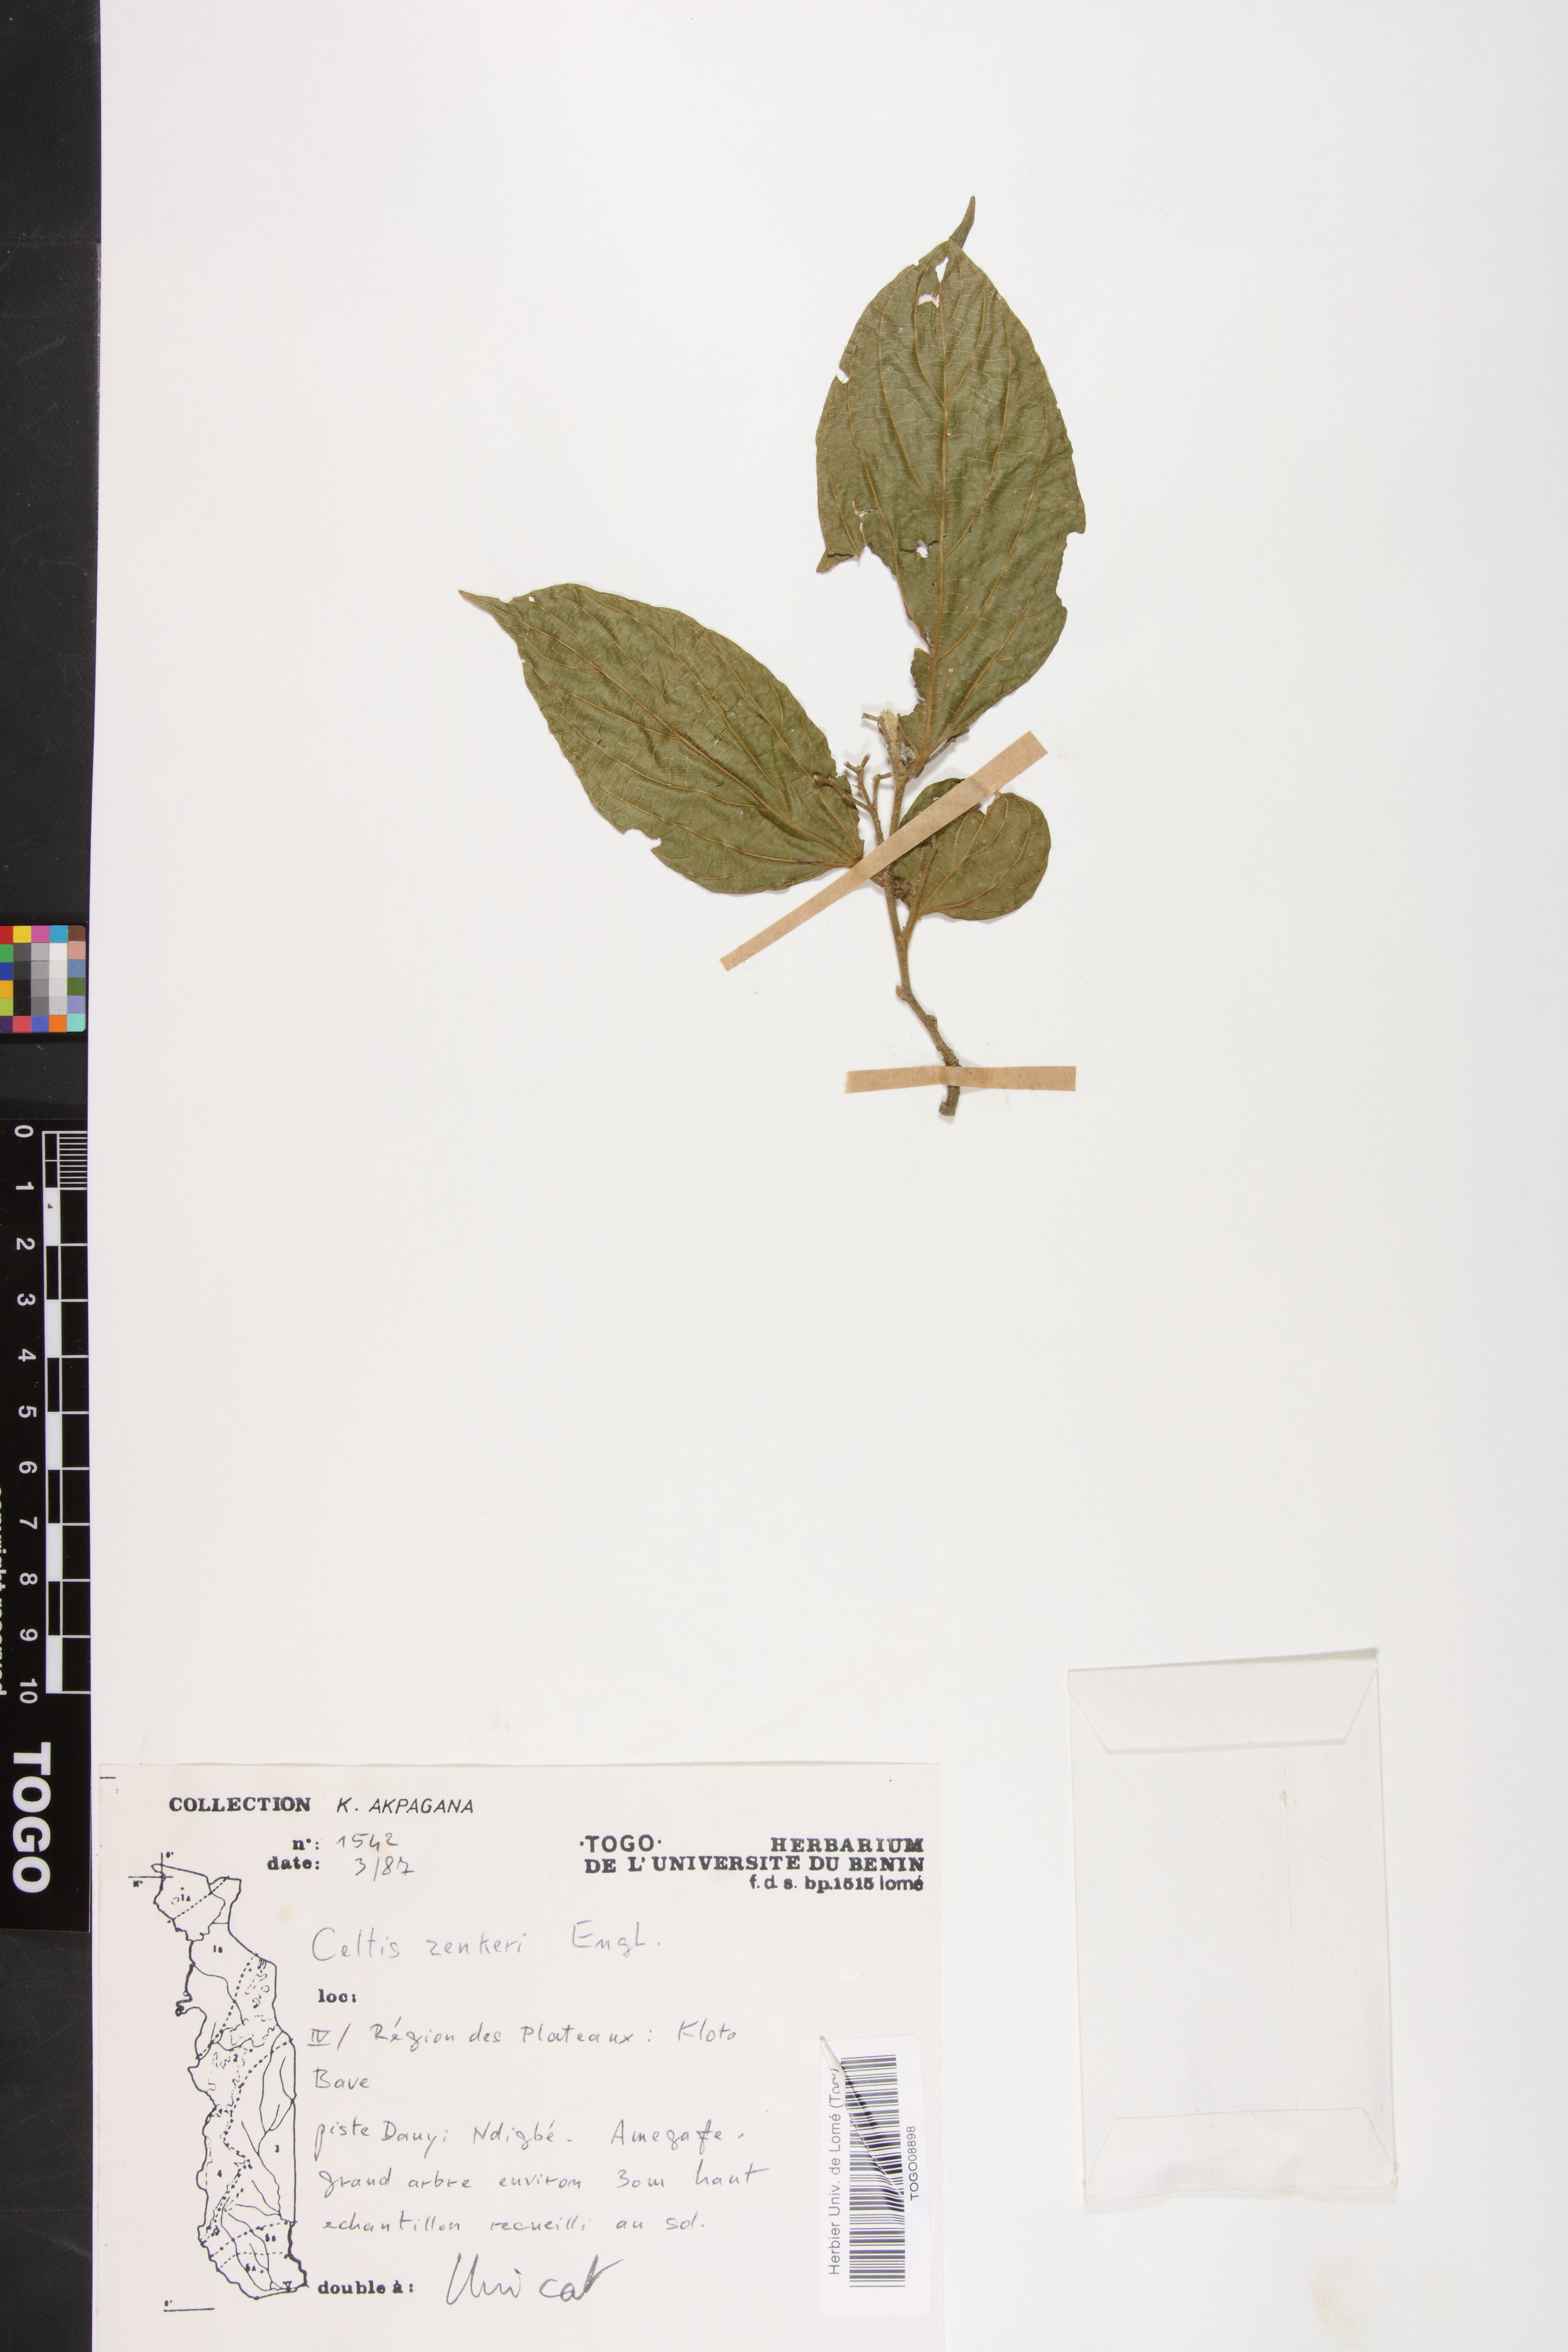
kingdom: Plantae
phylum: Tracheophyta
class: Magnoliopsida
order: Rosales
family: Cannabaceae
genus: Celtis
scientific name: Celtis zenkeri
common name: African celtis
